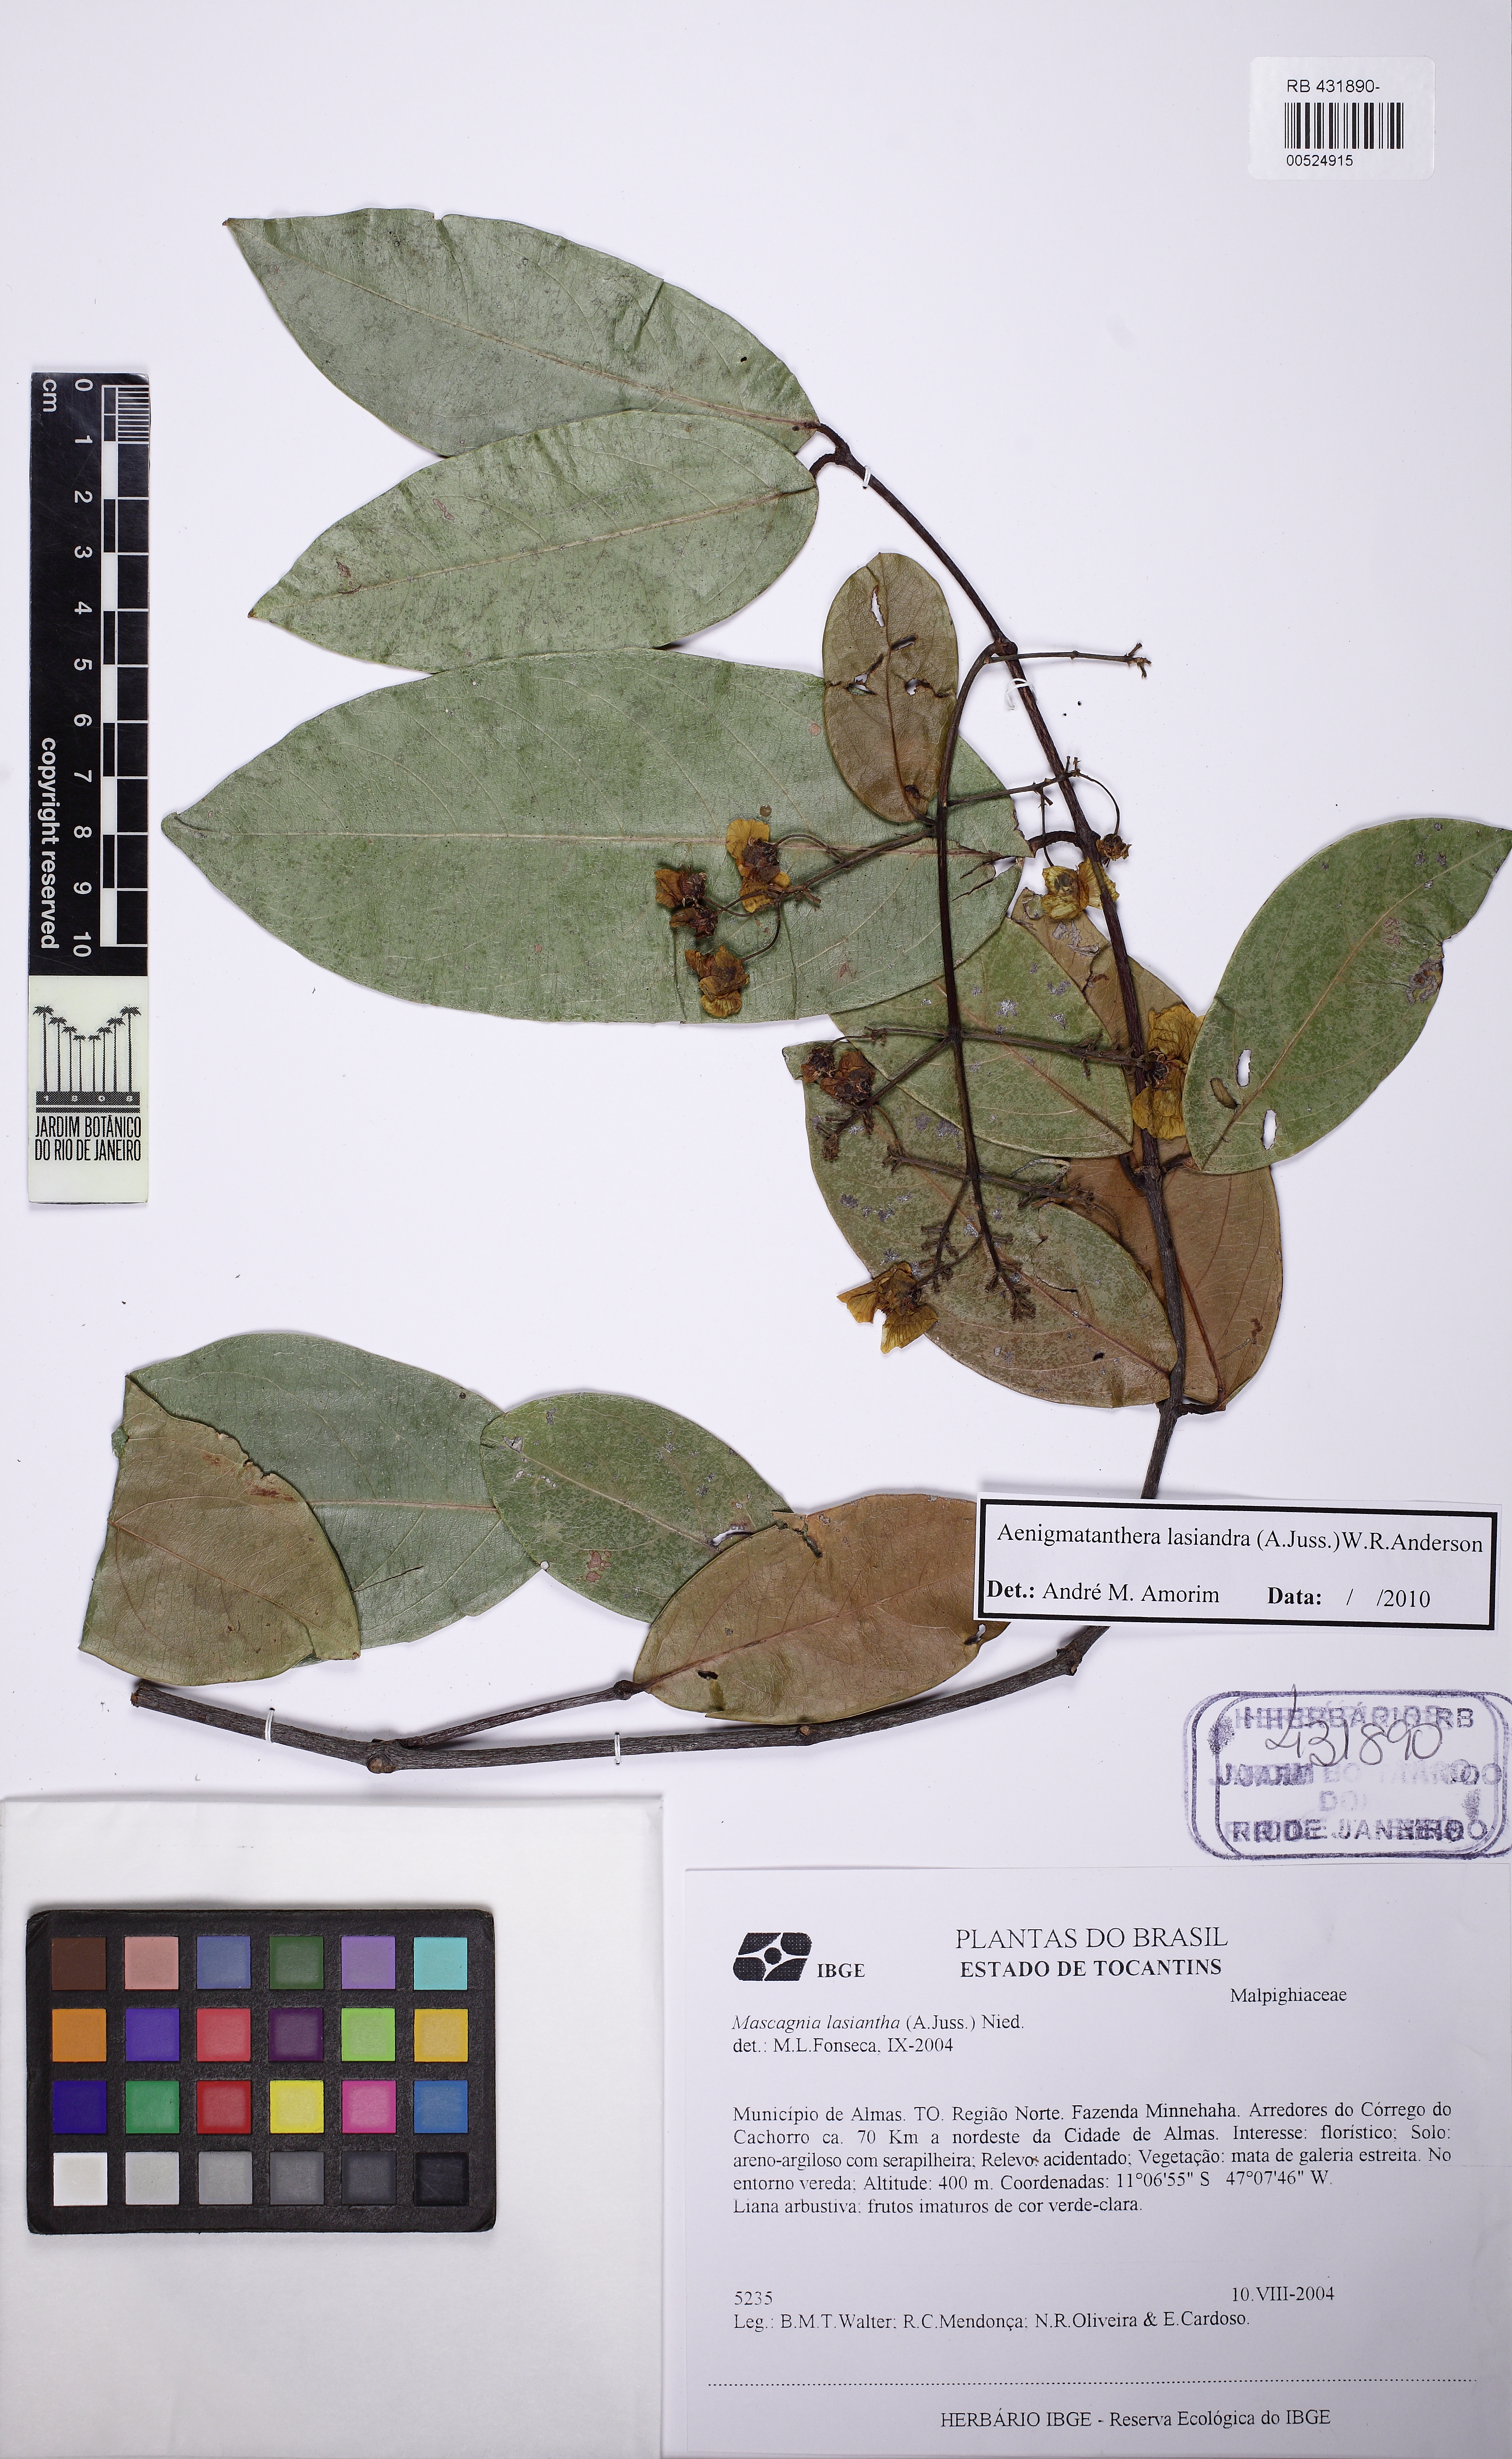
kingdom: Plantae
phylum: Tracheophyta
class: Magnoliopsida
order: Malpighiales
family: Malpighiaceae
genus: Niedenzuella
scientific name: Niedenzuella lasiandra
